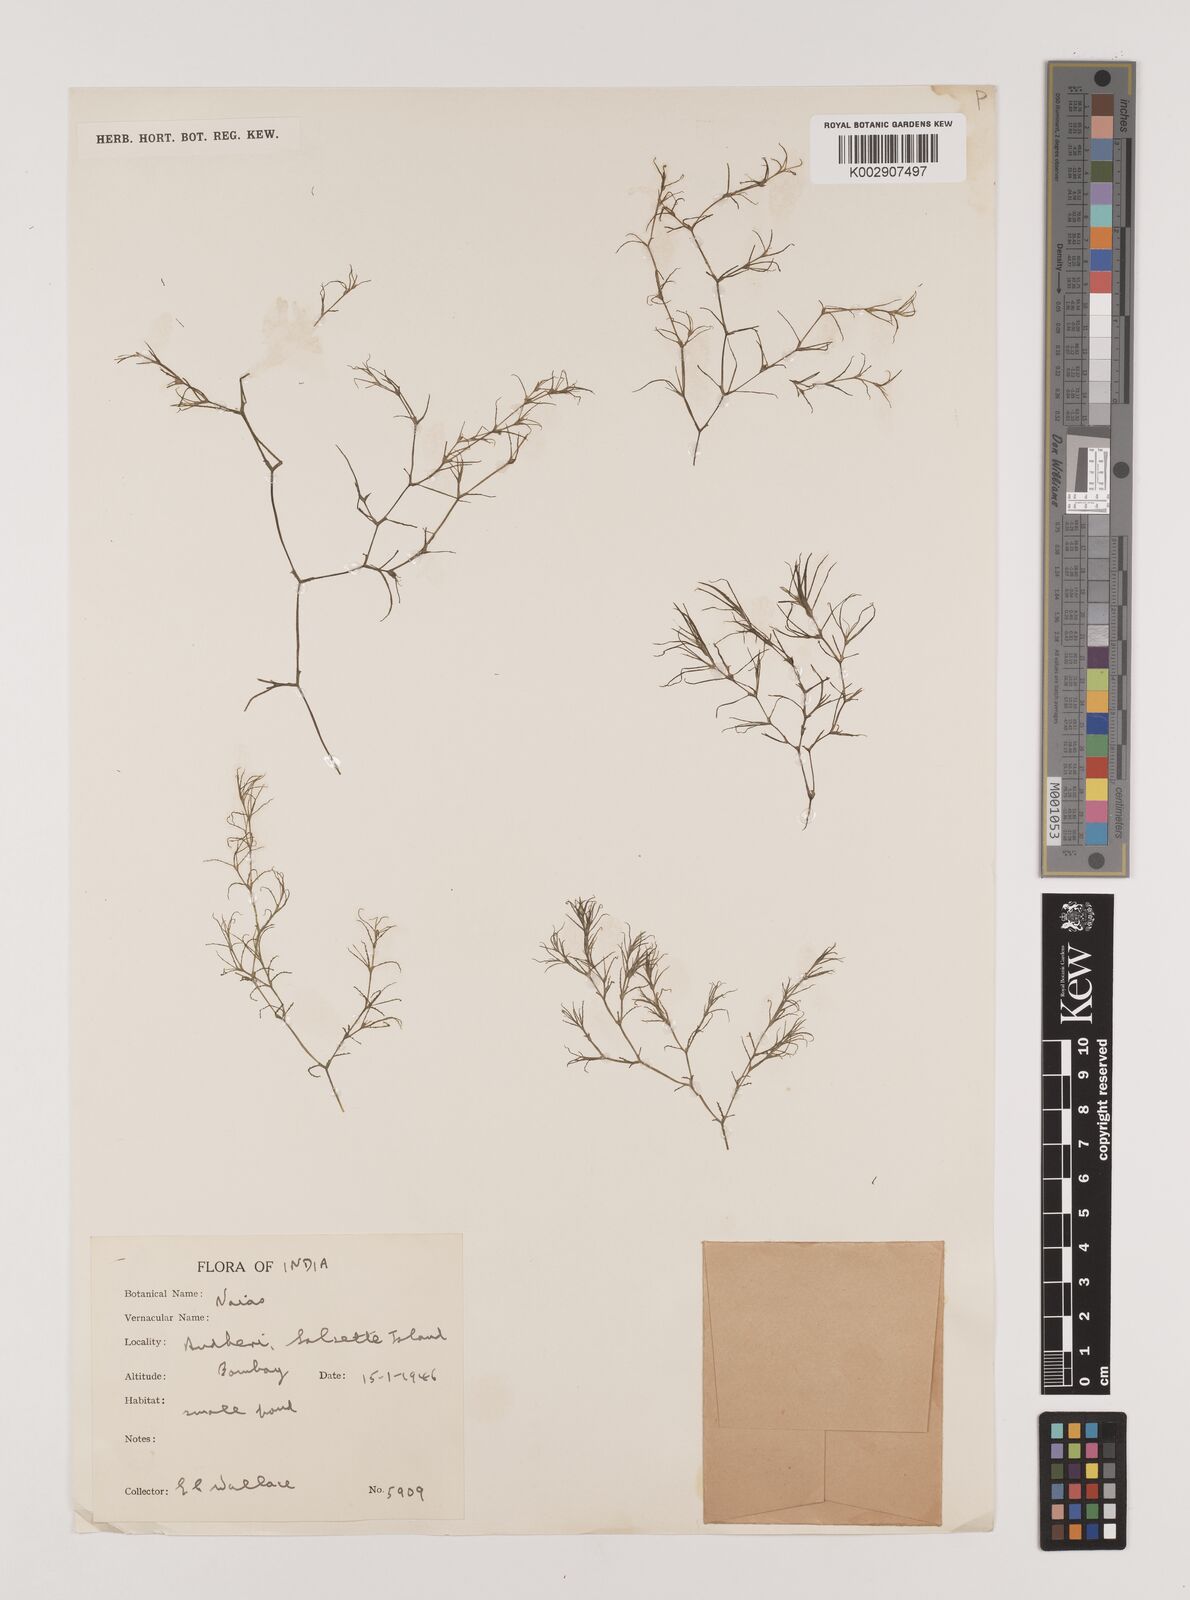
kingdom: Plantae
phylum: Tracheophyta
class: Liliopsida
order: Alismatales
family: Hydrocharitaceae
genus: Najas
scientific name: Najas
